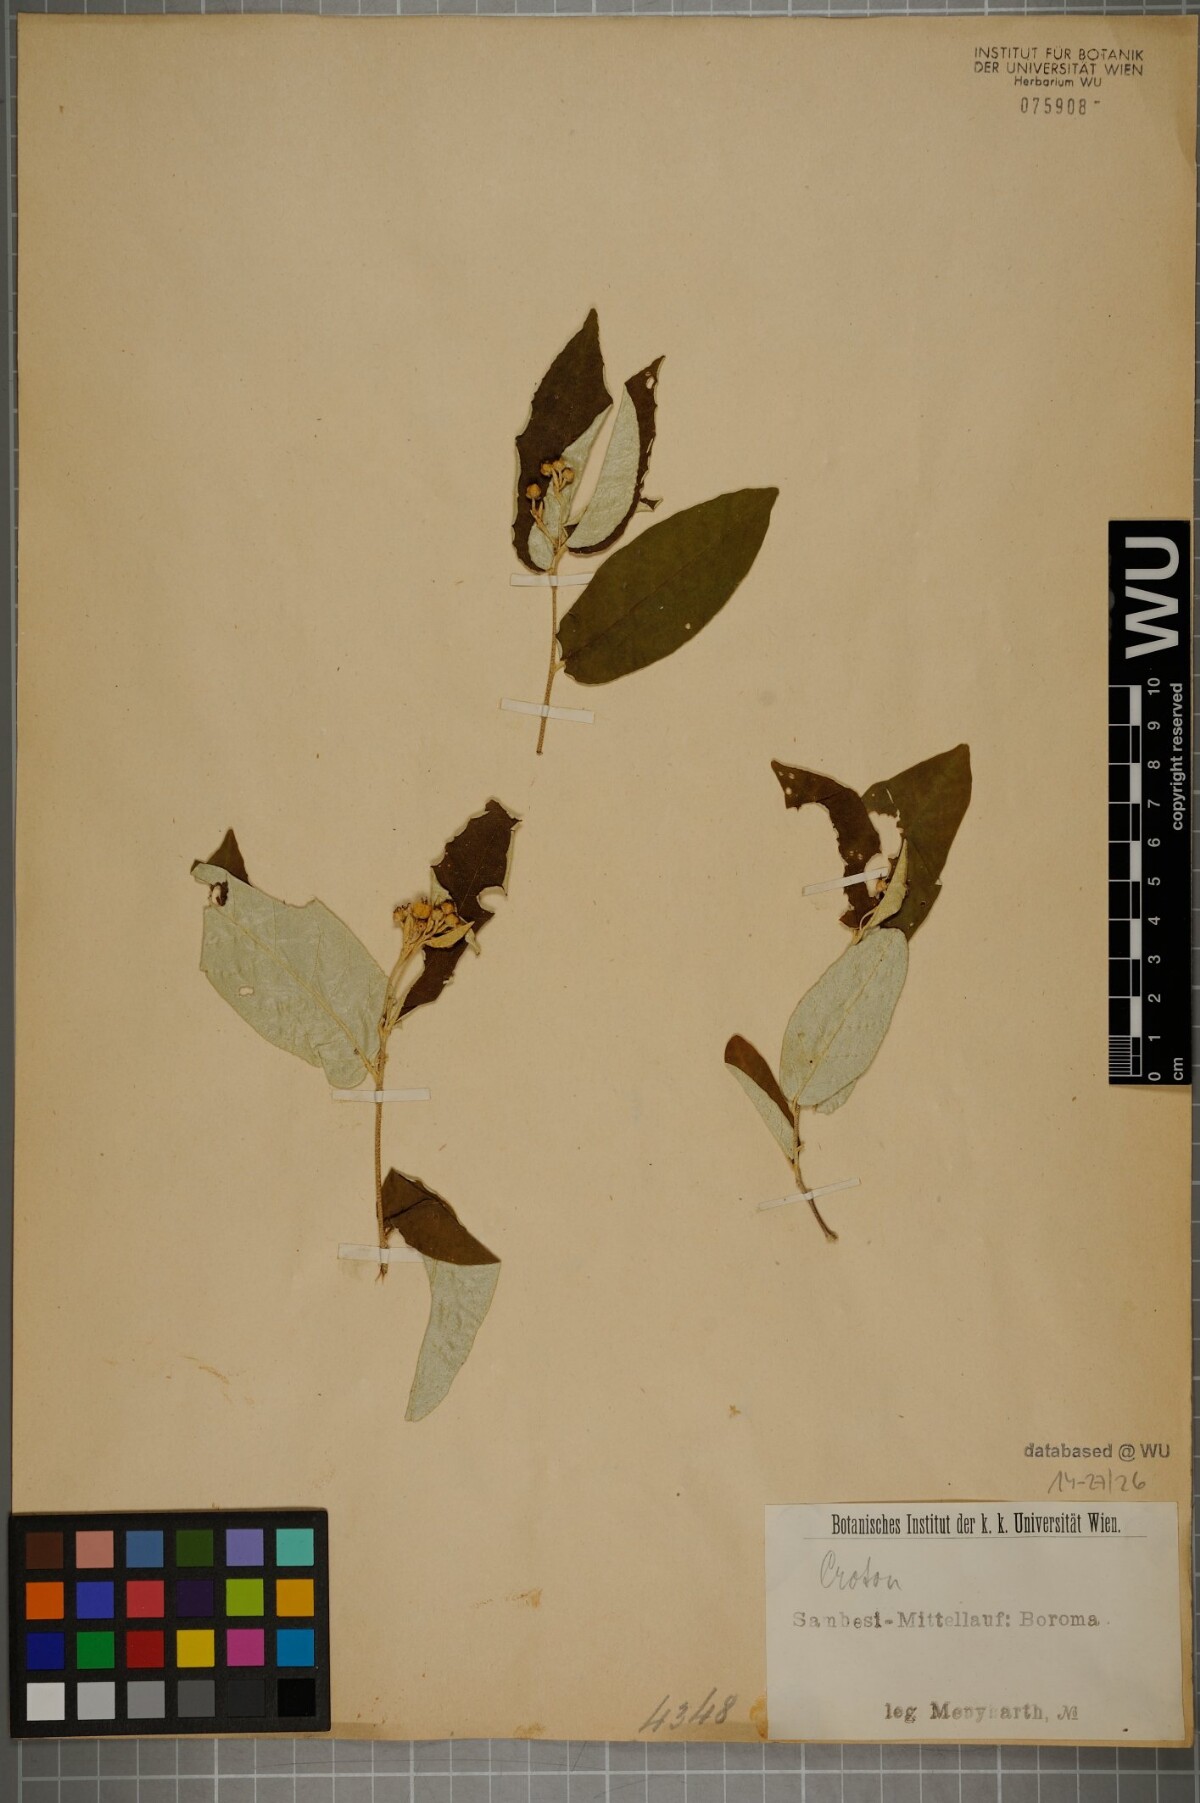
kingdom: Plantae
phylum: Tracheophyta
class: Magnoliopsida
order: Malpighiales
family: Euphorbiaceae
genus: Croton
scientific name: Croton
